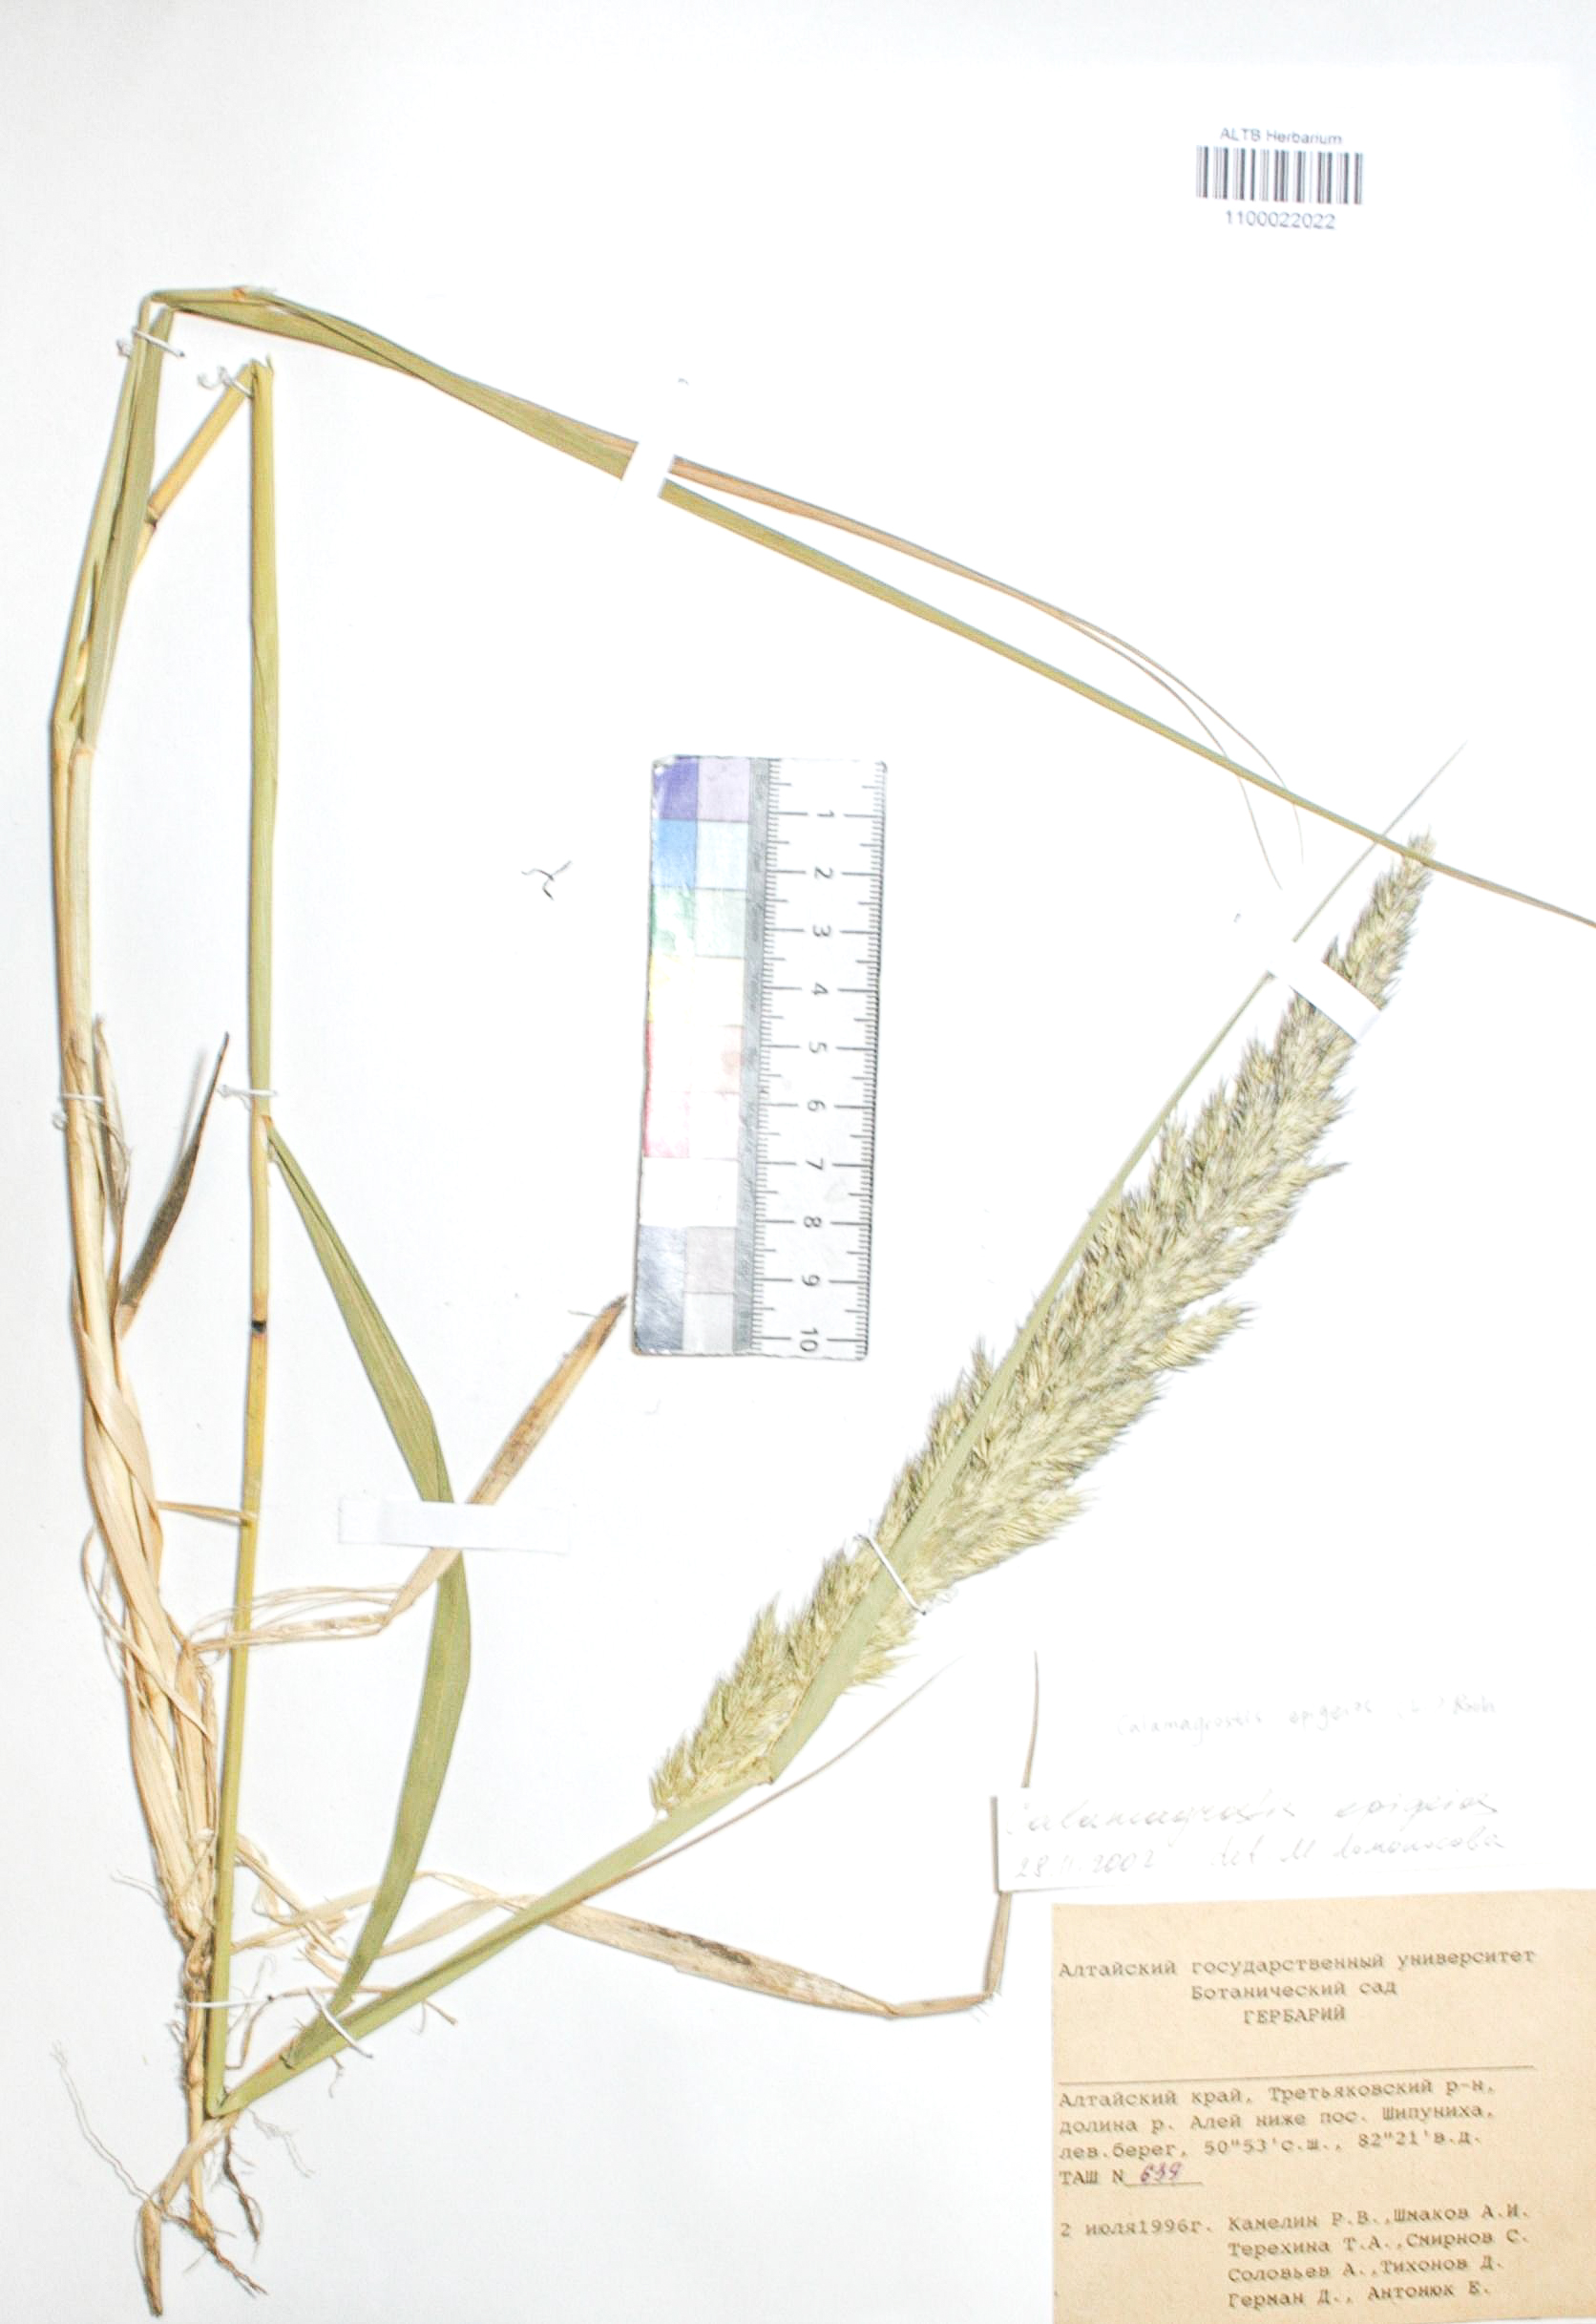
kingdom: Plantae
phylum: Tracheophyta
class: Liliopsida
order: Poales
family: Poaceae
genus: Calamagrostis
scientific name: Calamagrostis epigejos
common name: Wood small-reed
